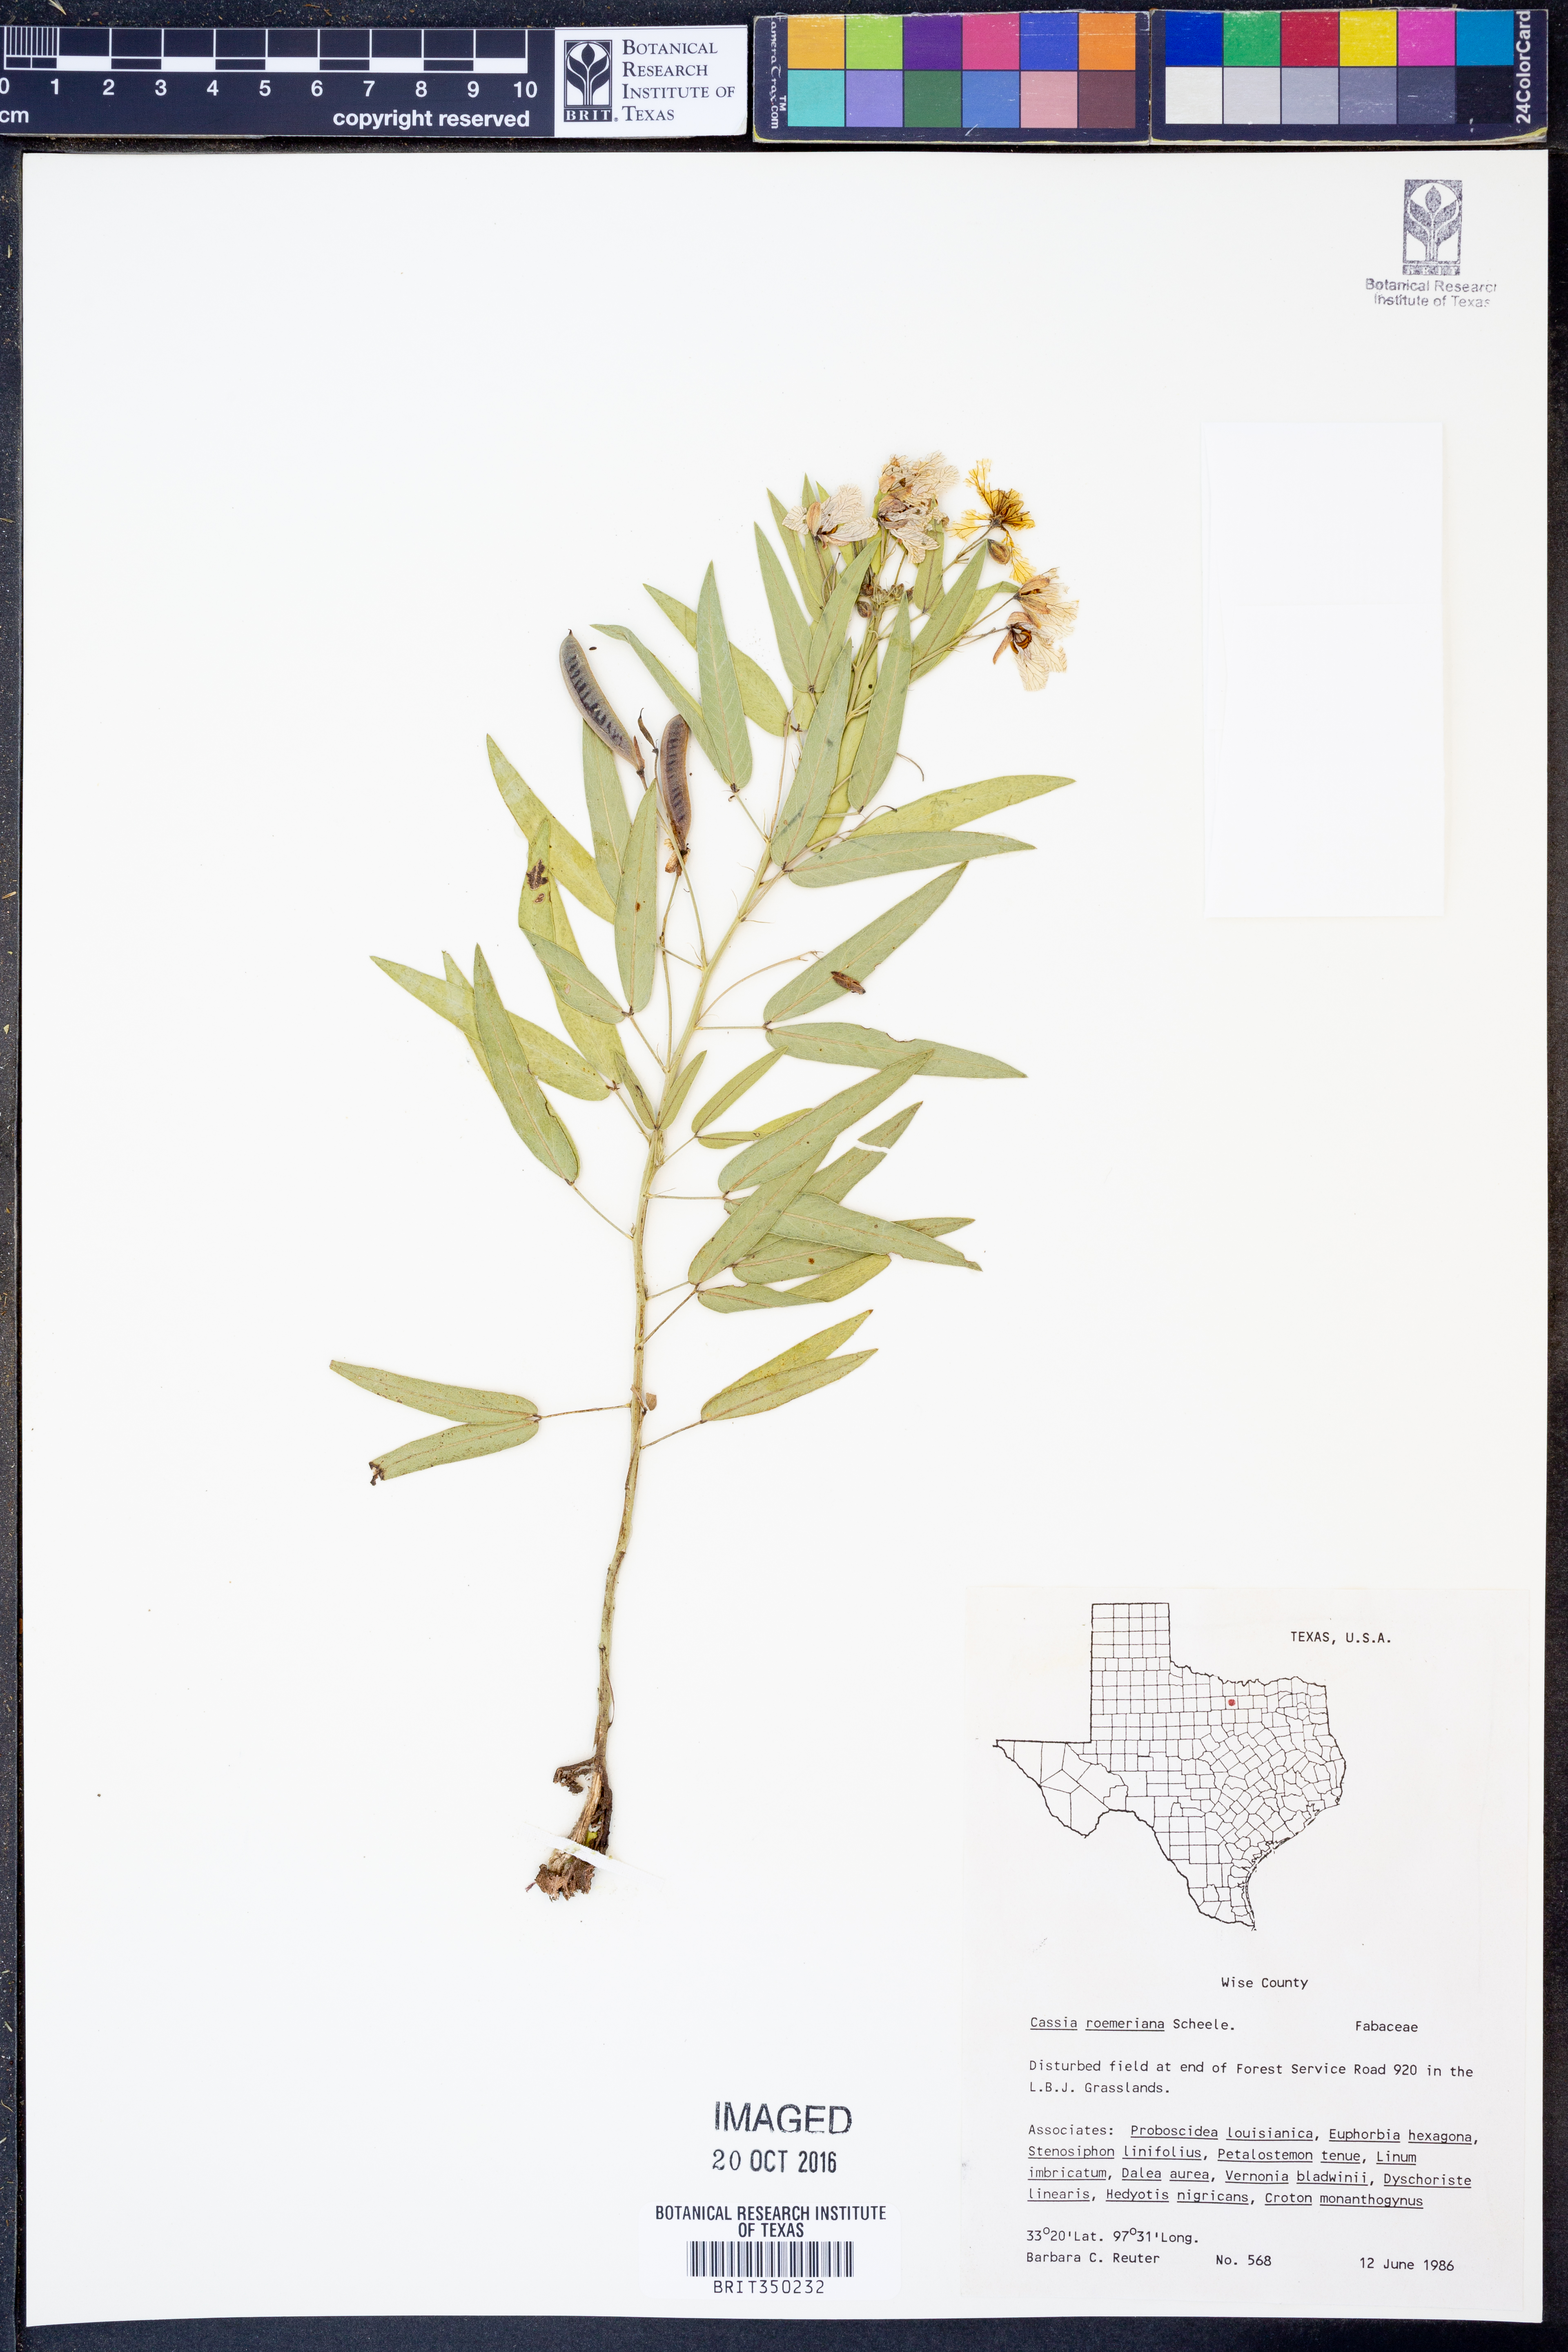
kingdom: Plantae
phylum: Tracheophyta
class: Magnoliopsida
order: Fabales
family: Fabaceae
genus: Senna
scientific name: Senna roemeriana
